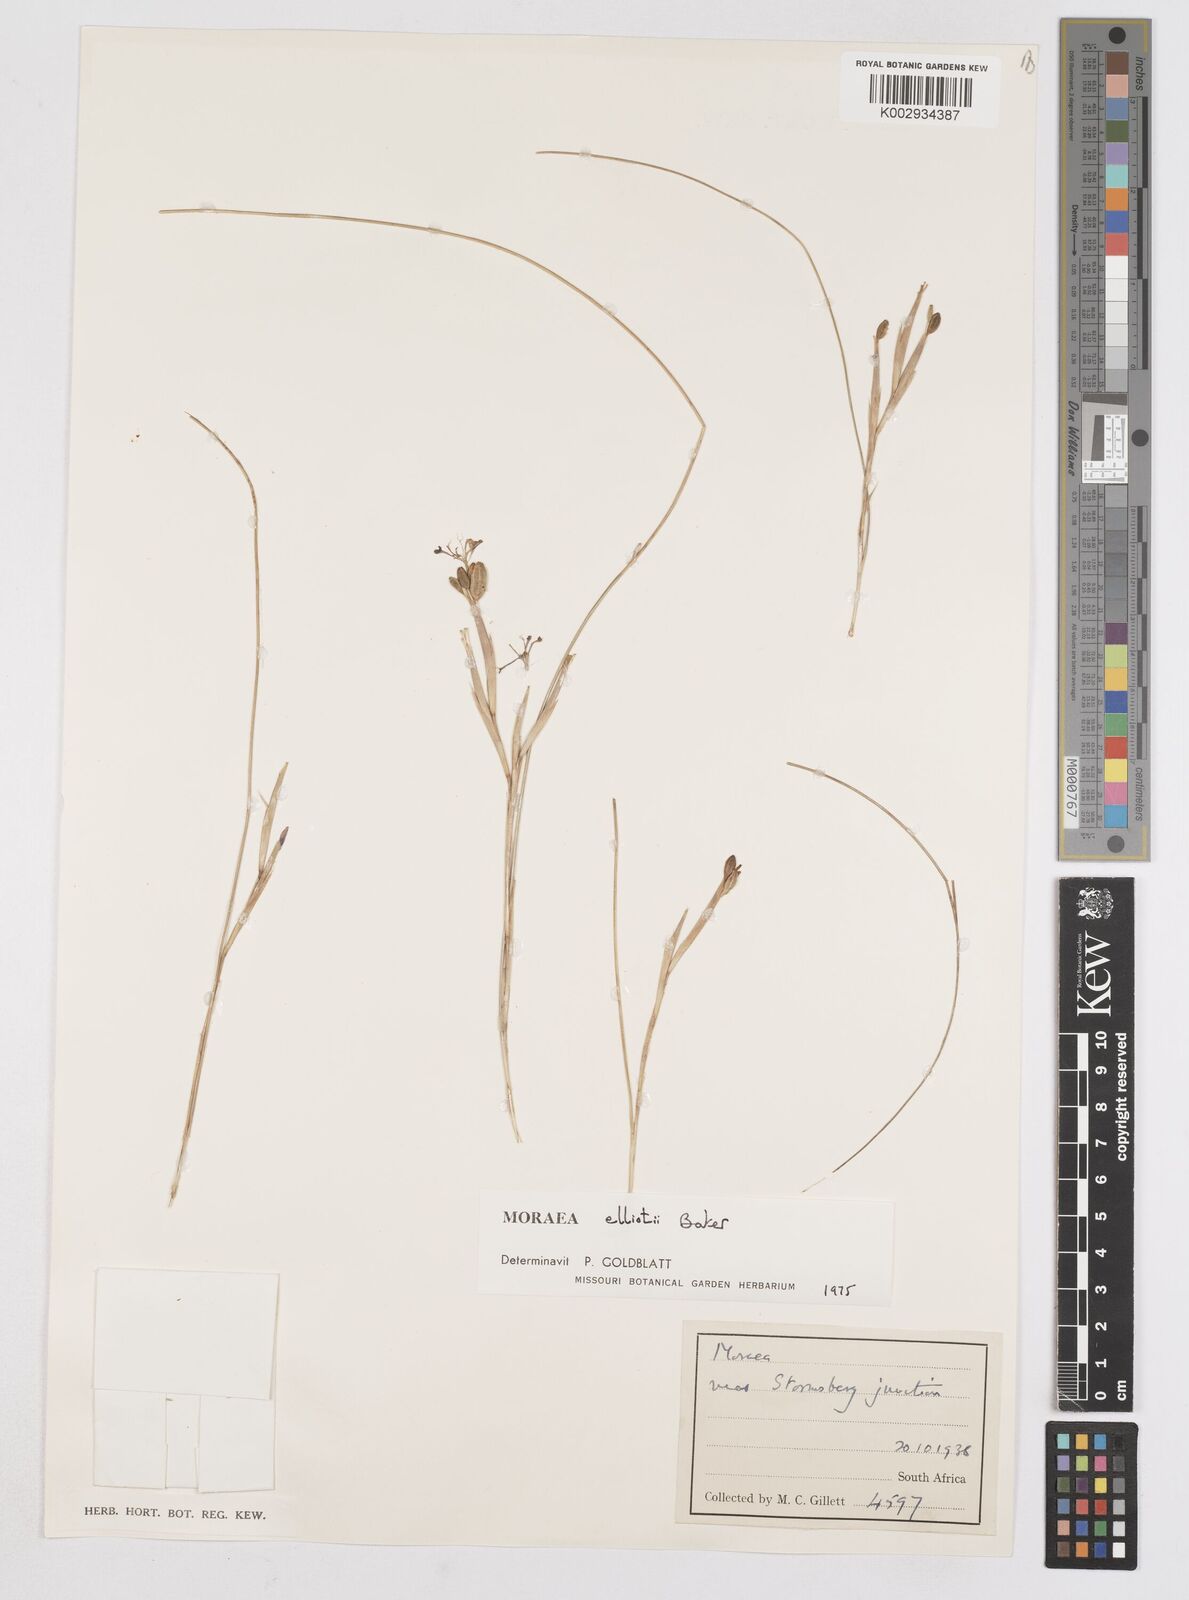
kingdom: Plantae
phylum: Tracheophyta
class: Liliopsida
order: Asparagales
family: Iridaceae
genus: Moraea
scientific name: Moraea elliotii
